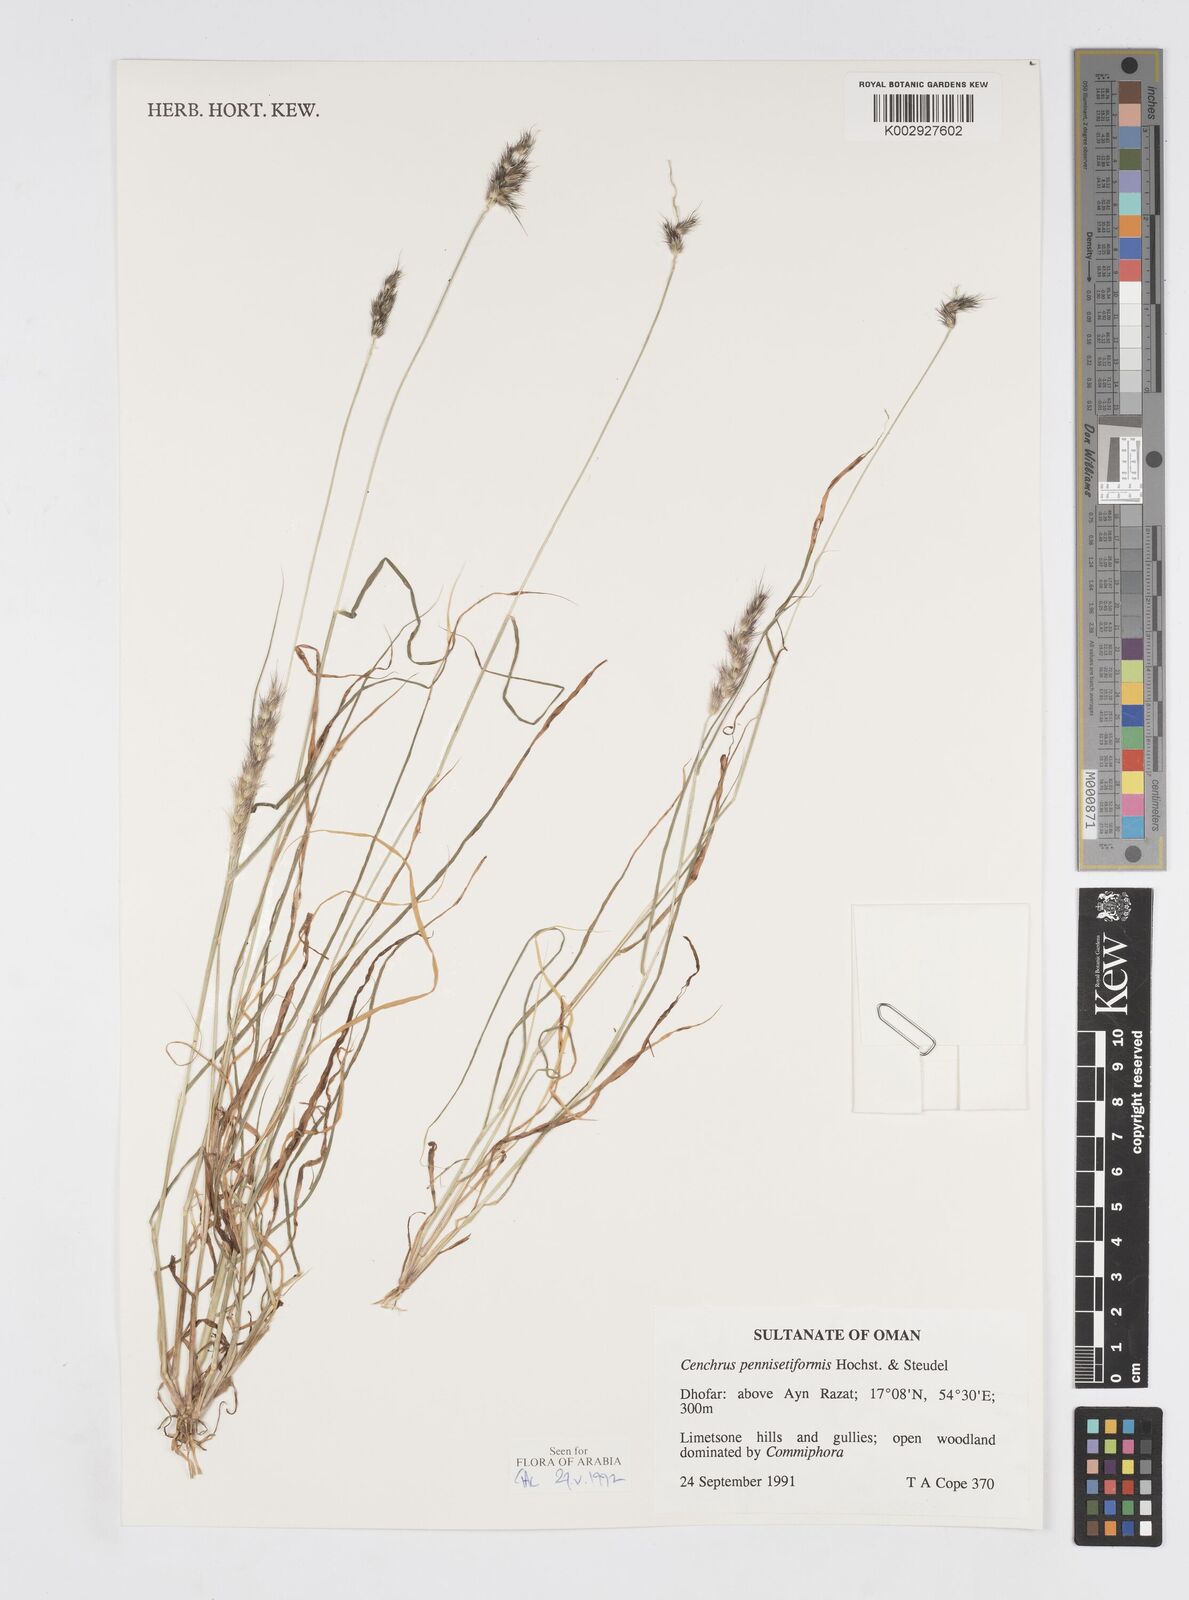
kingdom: Plantae
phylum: Tracheophyta
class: Liliopsida
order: Poales
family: Poaceae
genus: Cenchrus
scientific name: Cenchrus pennisetiformis
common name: Cloncurry
